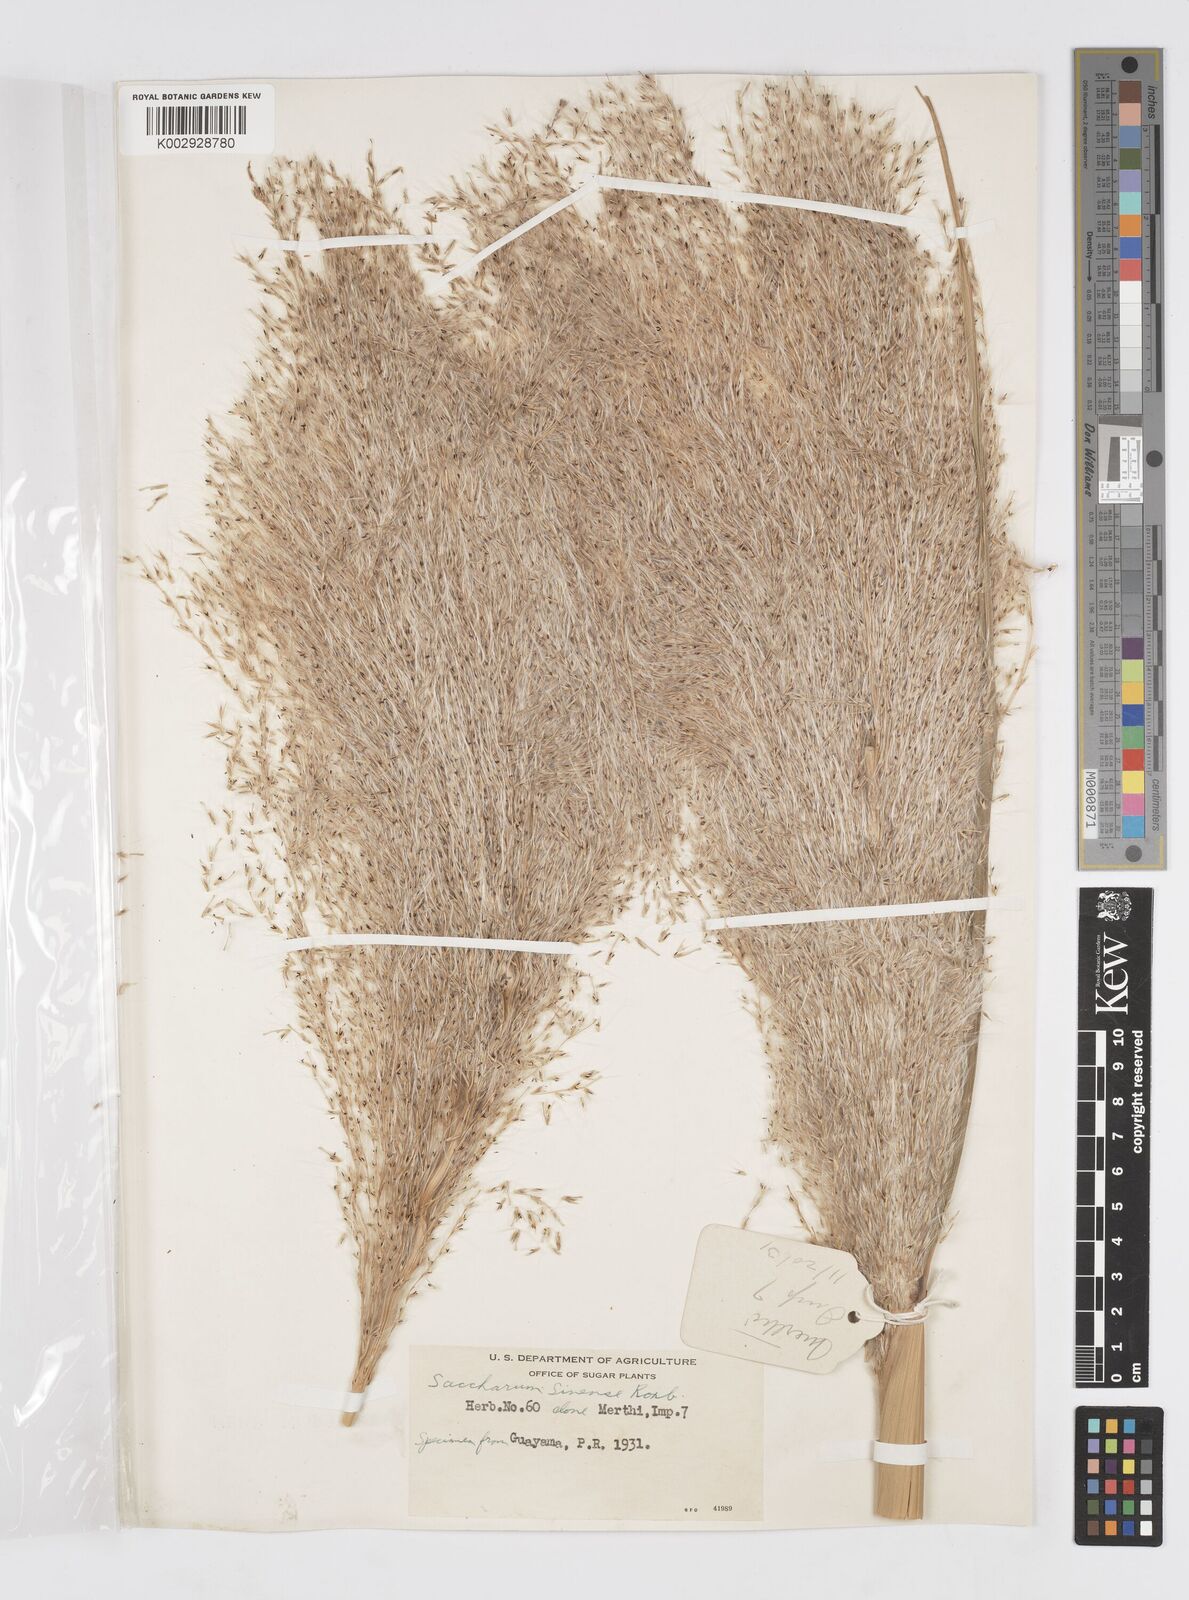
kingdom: Plantae
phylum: Tracheophyta
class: Liliopsida
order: Poales
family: Poaceae
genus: Saccharum
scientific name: Saccharum officinarum
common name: Sugarcane
